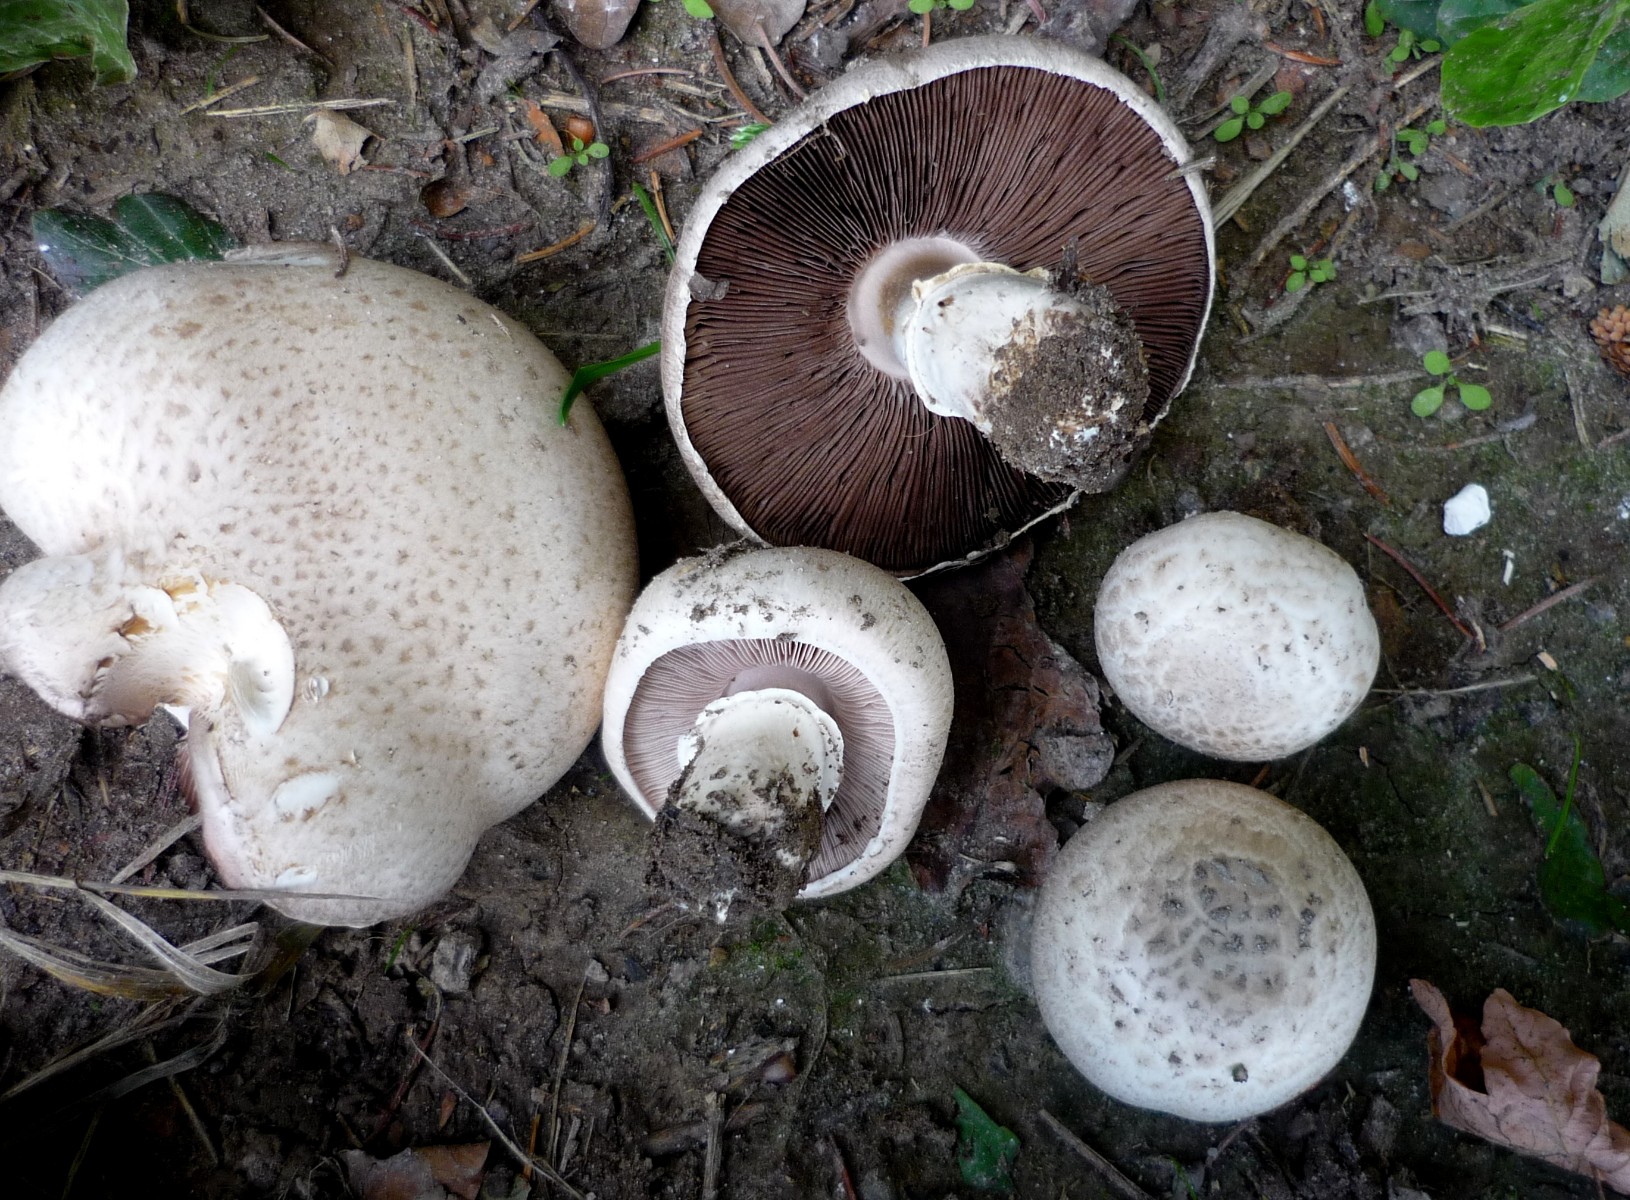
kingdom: Fungi
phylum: Basidiomycota
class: Agaricomycetes
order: Agaricales
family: Agaricaceae
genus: Agaricus
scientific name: Agaricus
